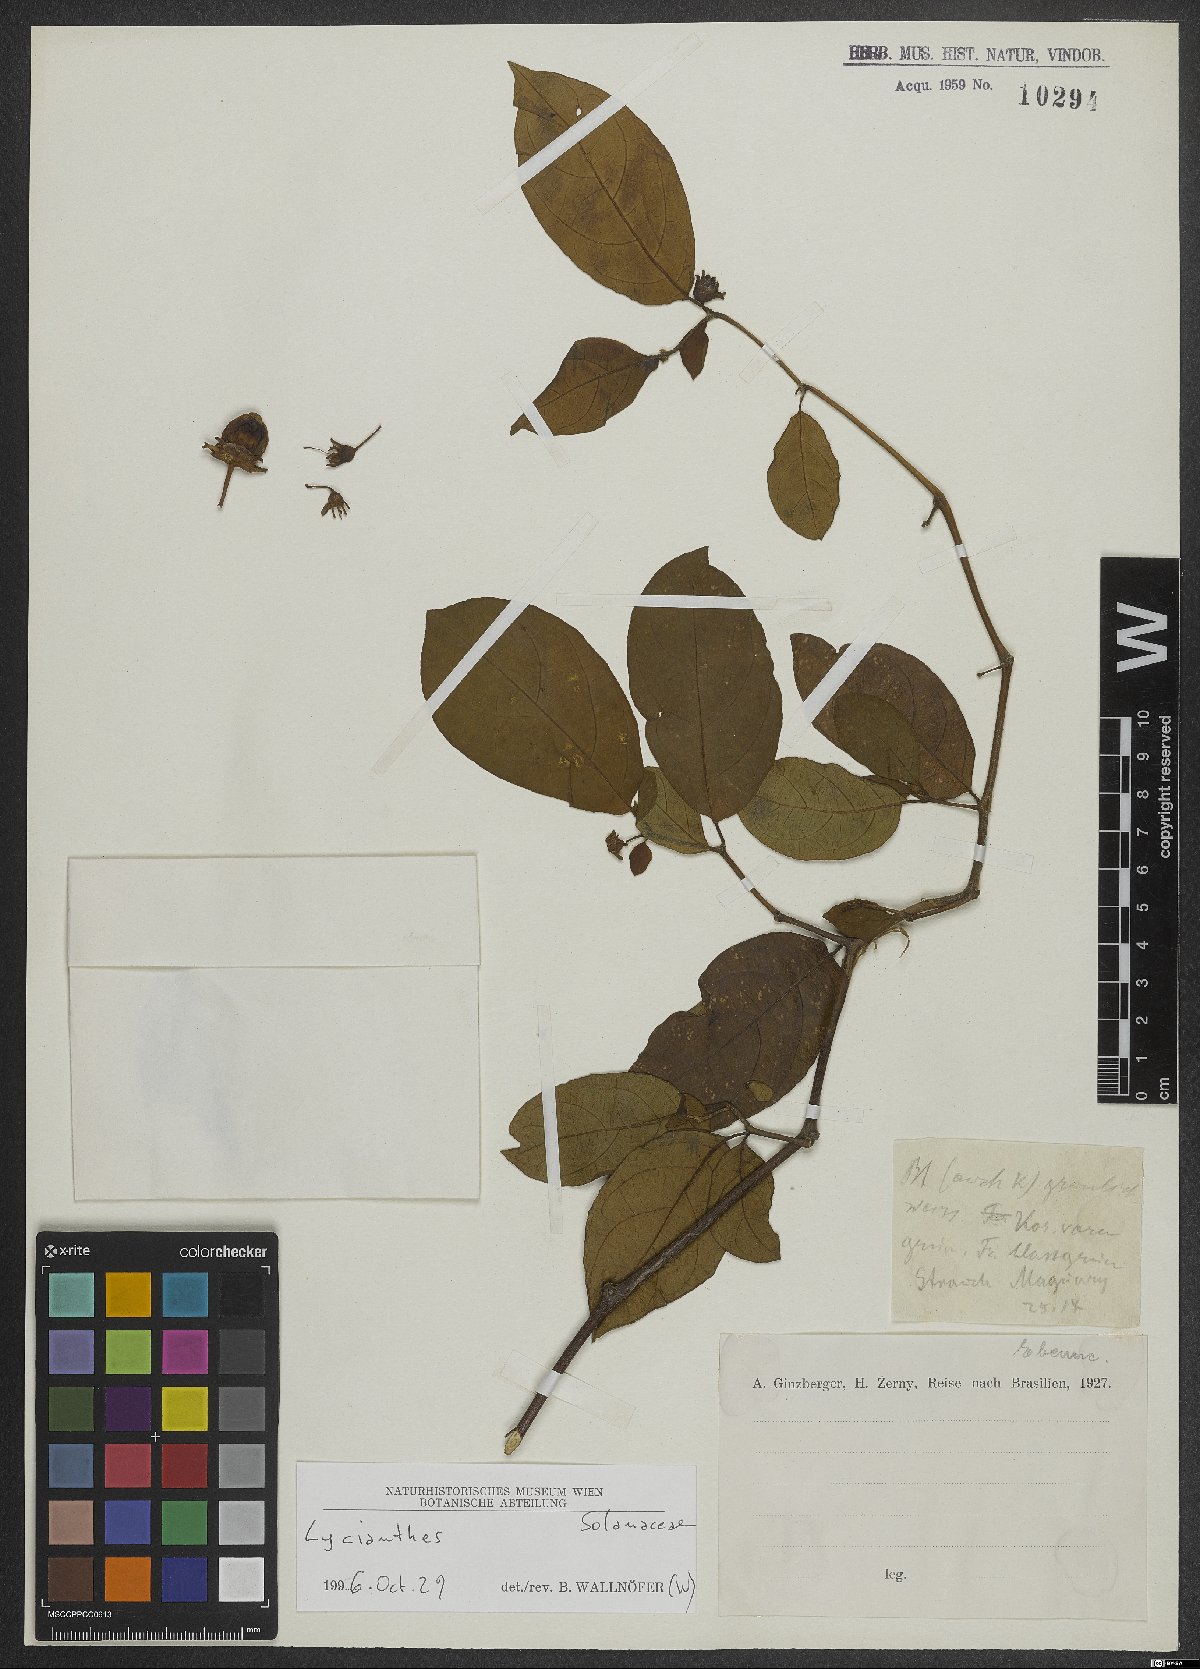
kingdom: Plantae
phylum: Tracheophyta
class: Magnoliopsida
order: Solanales
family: Solanaceae
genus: Lycianthes
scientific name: Lycianthes pauciflora
